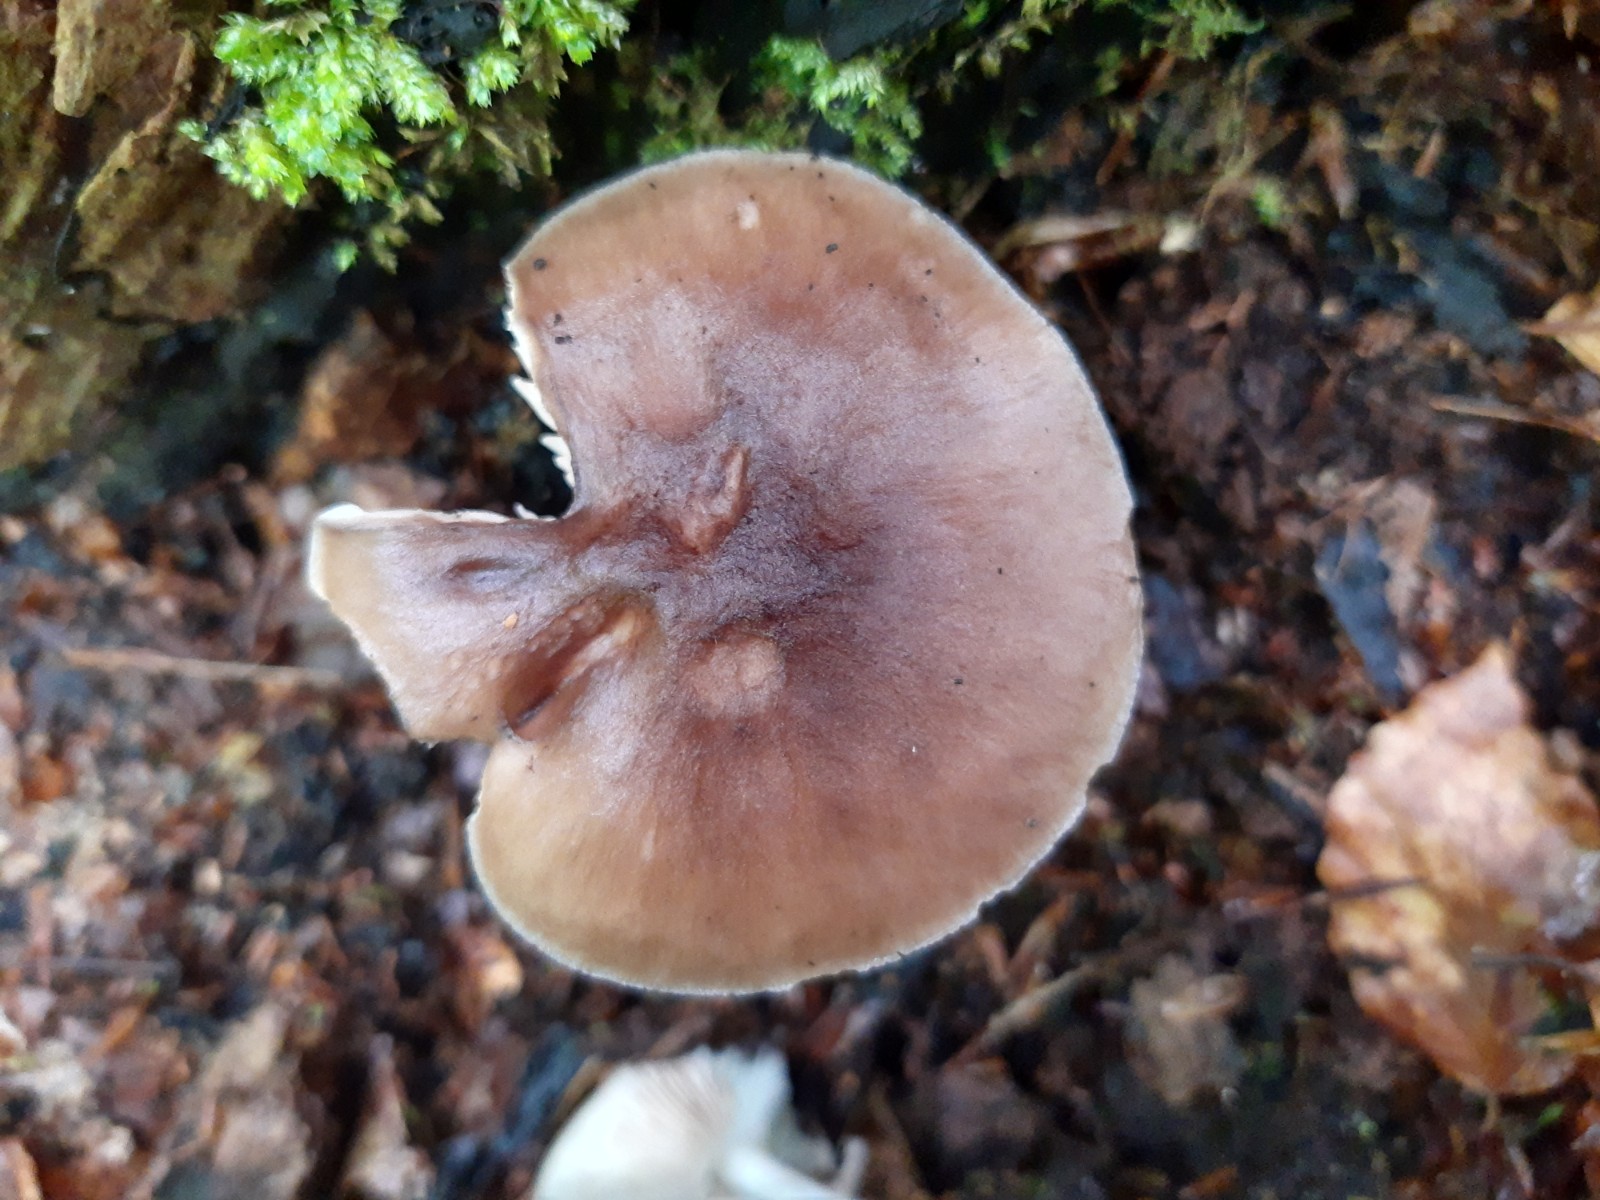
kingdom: Fungi
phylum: Basidiomycota
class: Agaricomycetes
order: Agaricales
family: Pluteaceae
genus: Pluteus
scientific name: Pluteus cervinus
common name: sodfarvet skærmhat
